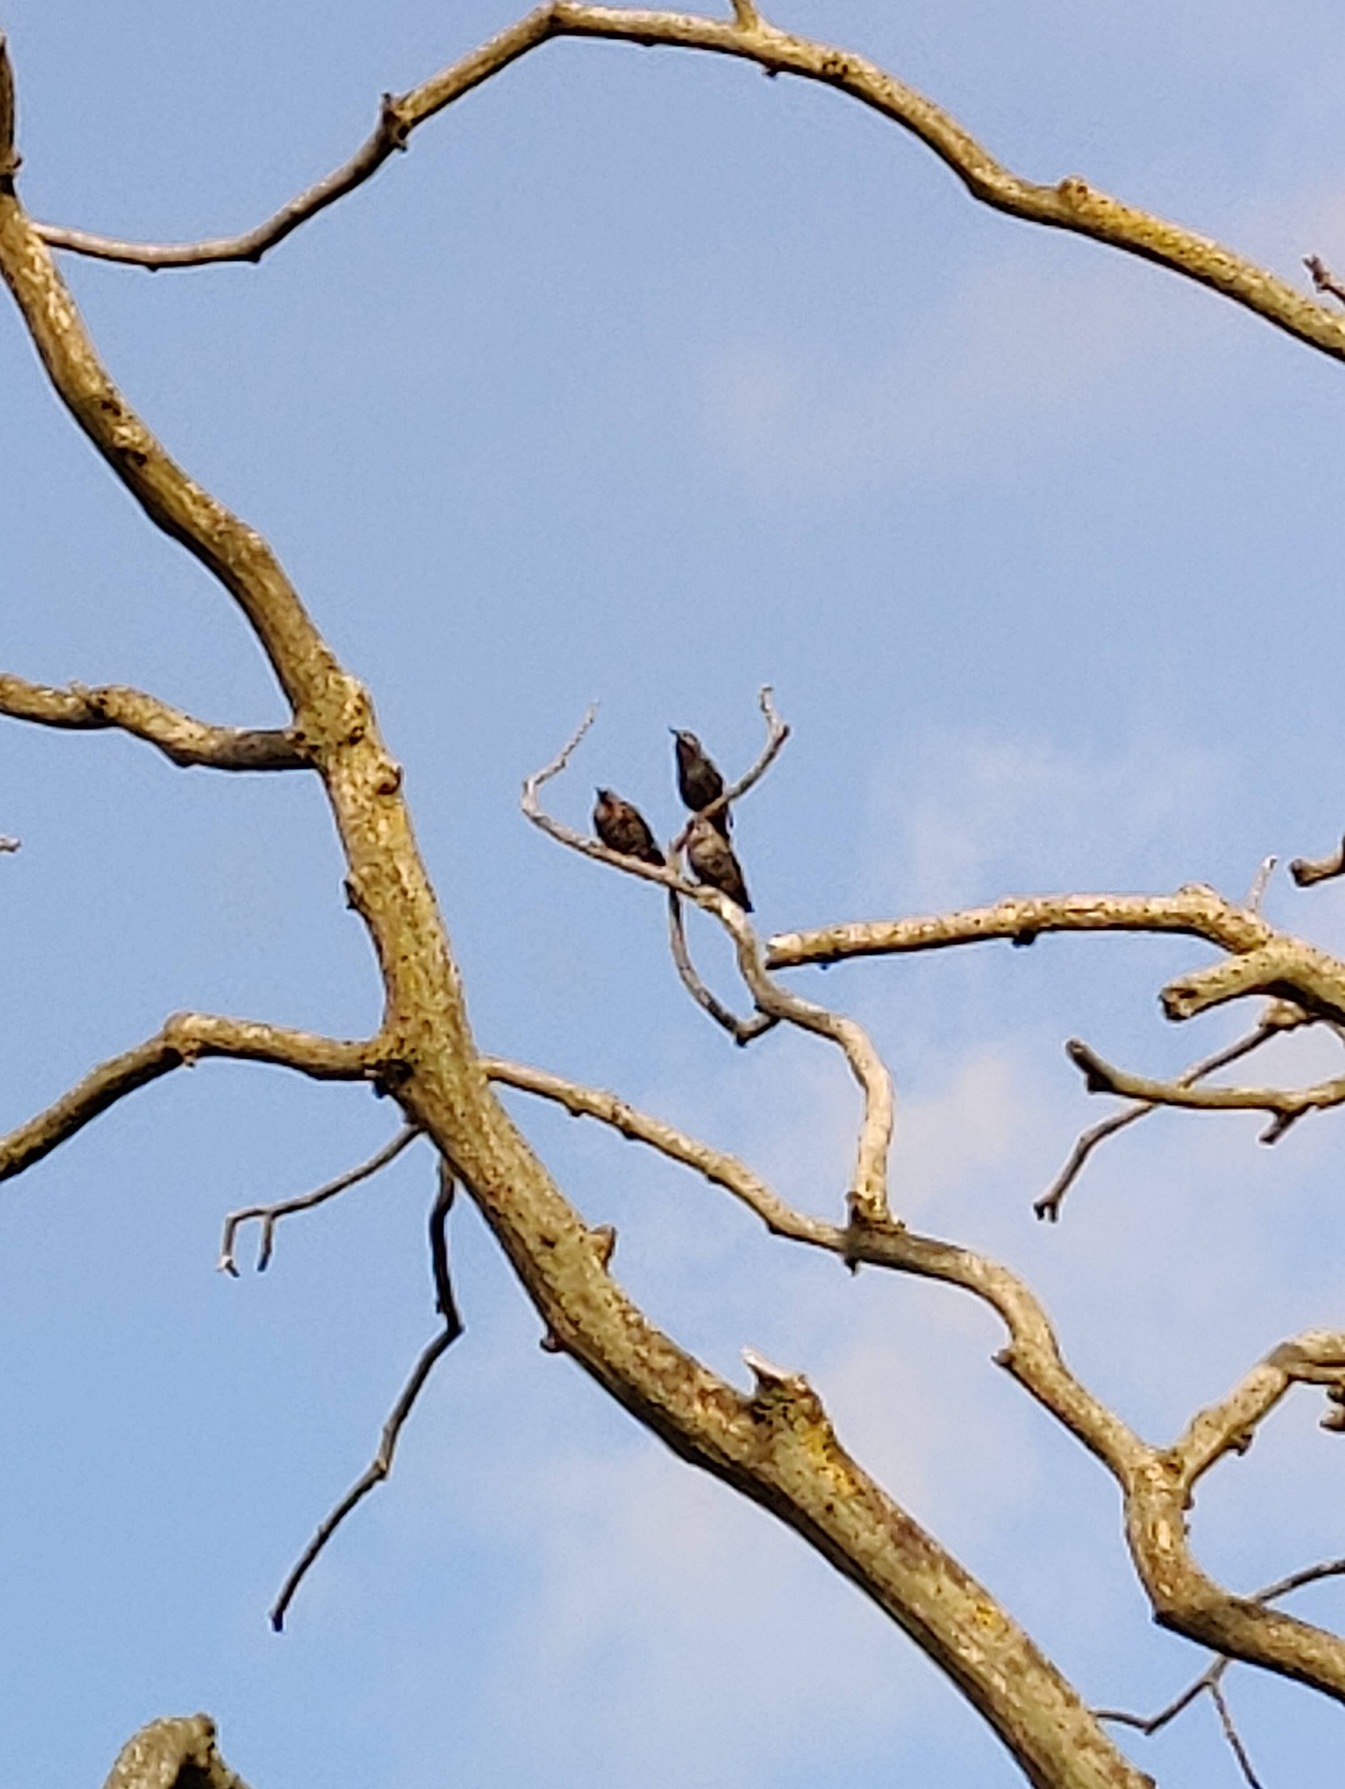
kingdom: Animalia
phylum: Chordata
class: Aves
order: Passeriformes
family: Sturnidae
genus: Sturnus
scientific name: Sturnus vulgaris
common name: Stær
